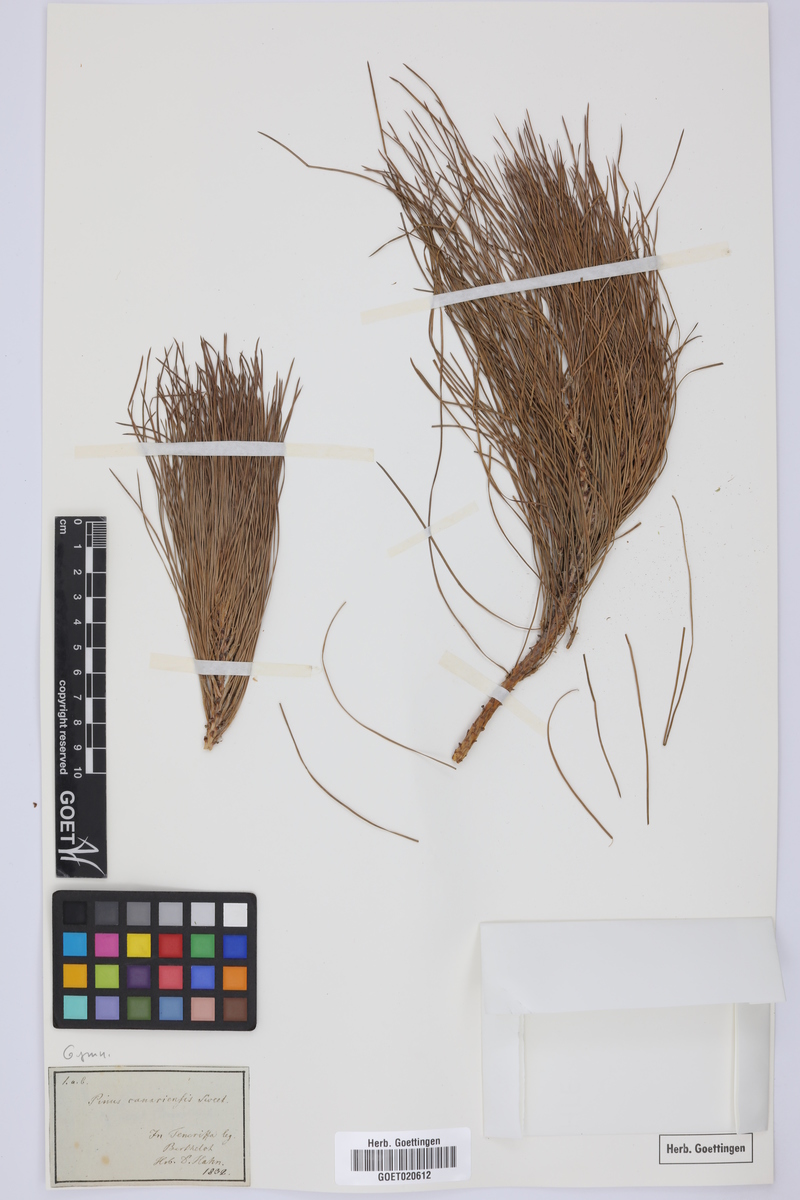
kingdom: Plantae
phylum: Tracheophyta
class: Pinopsida
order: Pinales
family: Pinaceae
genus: Pinus
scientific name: Pinus canariensis
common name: Canary islands pine
